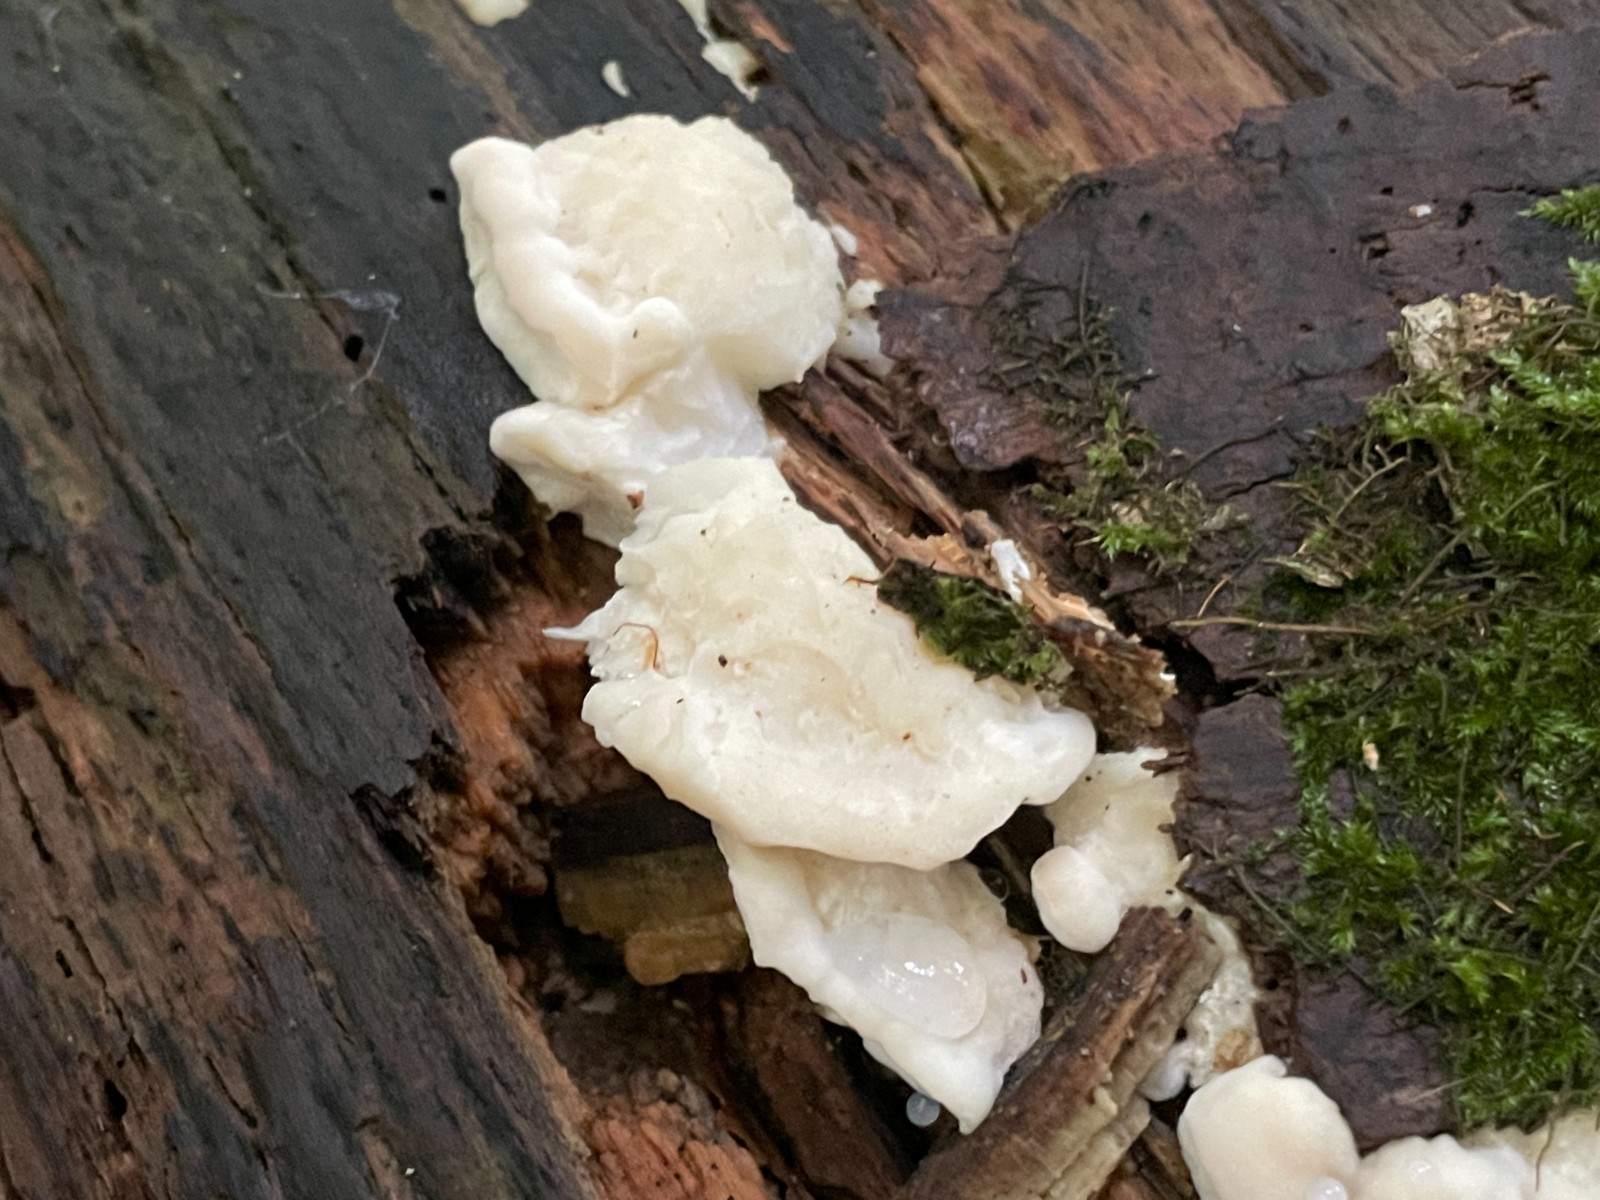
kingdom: Fungi
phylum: Basidiomycota
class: Agaricomycetes
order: Polyporales
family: Incrustoporiaceae
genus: Tyromyces
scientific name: Tyromyces lacteus
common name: mælkehvid kødporesvamp
